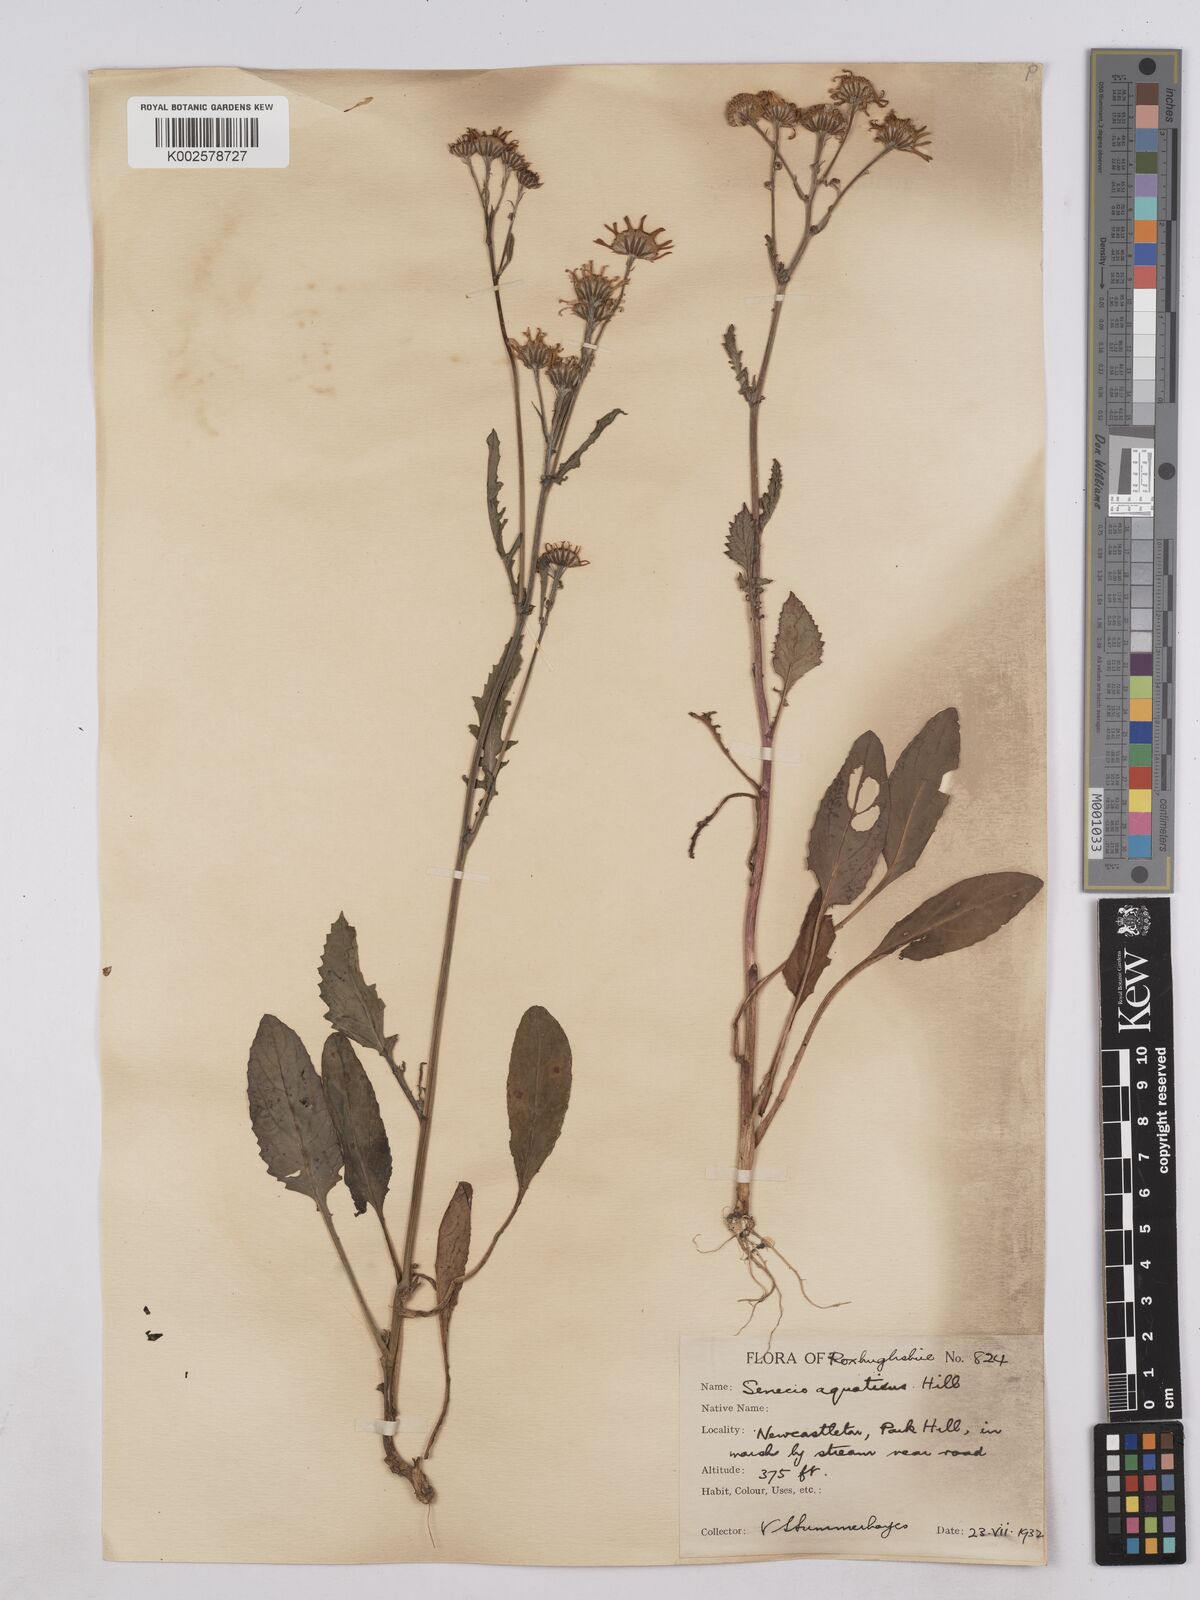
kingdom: Plantae
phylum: Tracheophyta
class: Magnoliopsida
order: Asterales
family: Asteraceae
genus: Jacobaea
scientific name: Jacobaea aquatica
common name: Water ragwort
